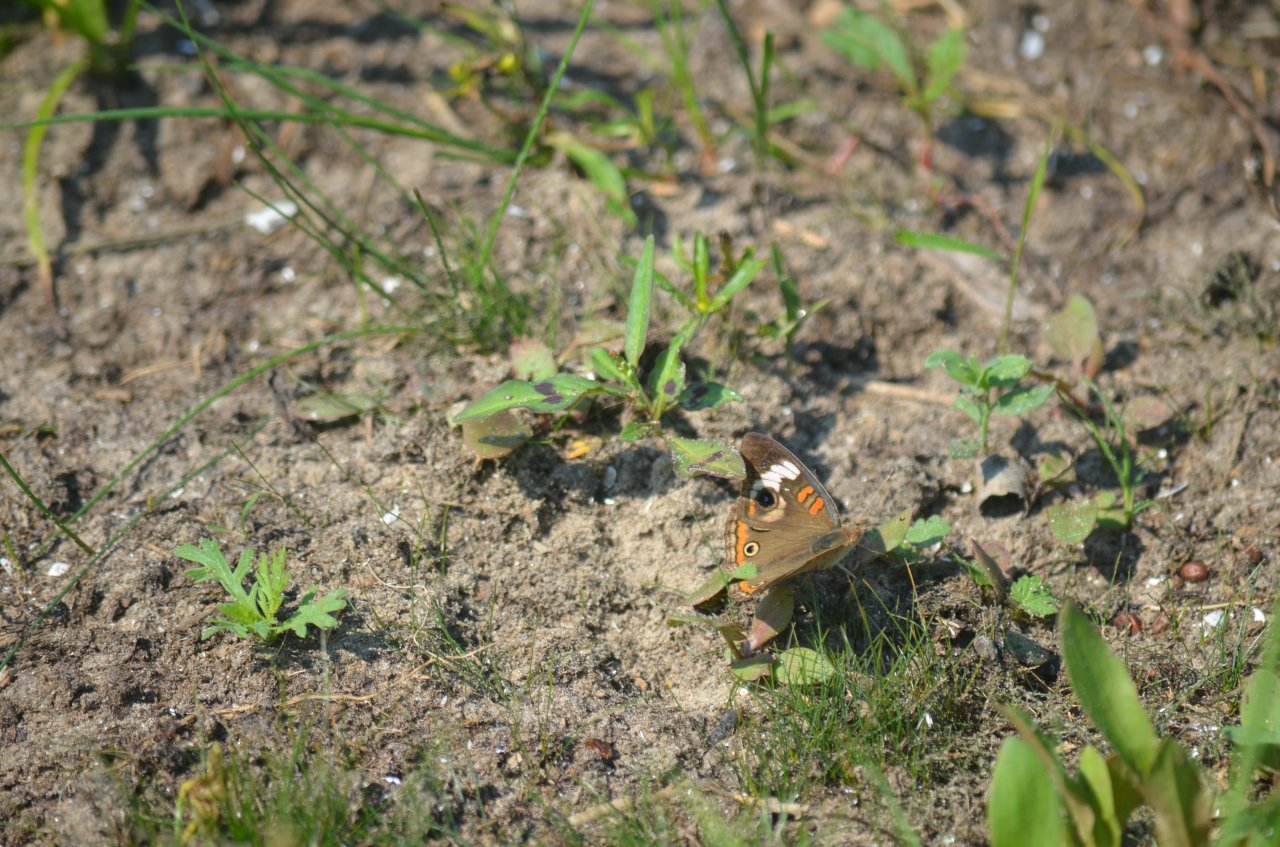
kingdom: Animalia
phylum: Arthropoda
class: Insecta
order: Lepidoptera
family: Nymphalidae
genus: Junonia
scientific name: Junonia coenia
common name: Common Buckeye
